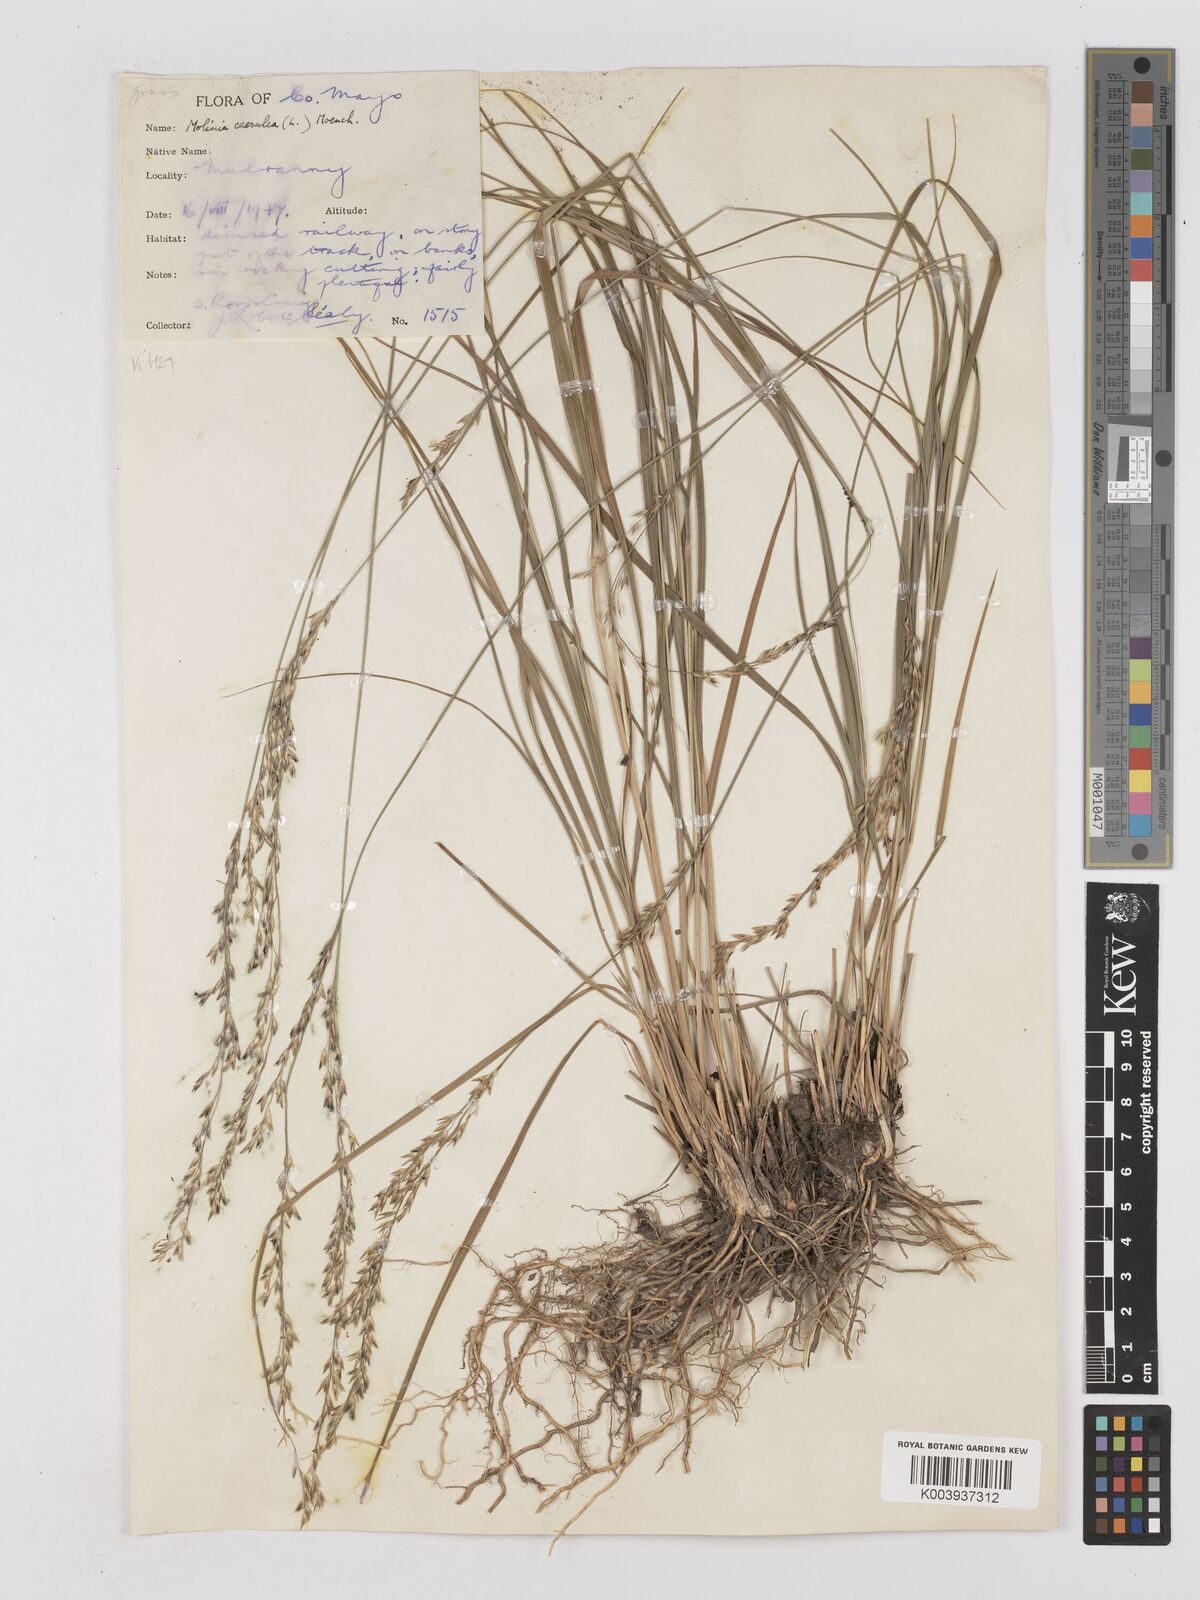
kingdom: Plantae
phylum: Tracheophyta
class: Liliopsida
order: Poales
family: Poaceae
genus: Molinia
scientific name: Molinia caerulea
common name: Purple moor-grass
